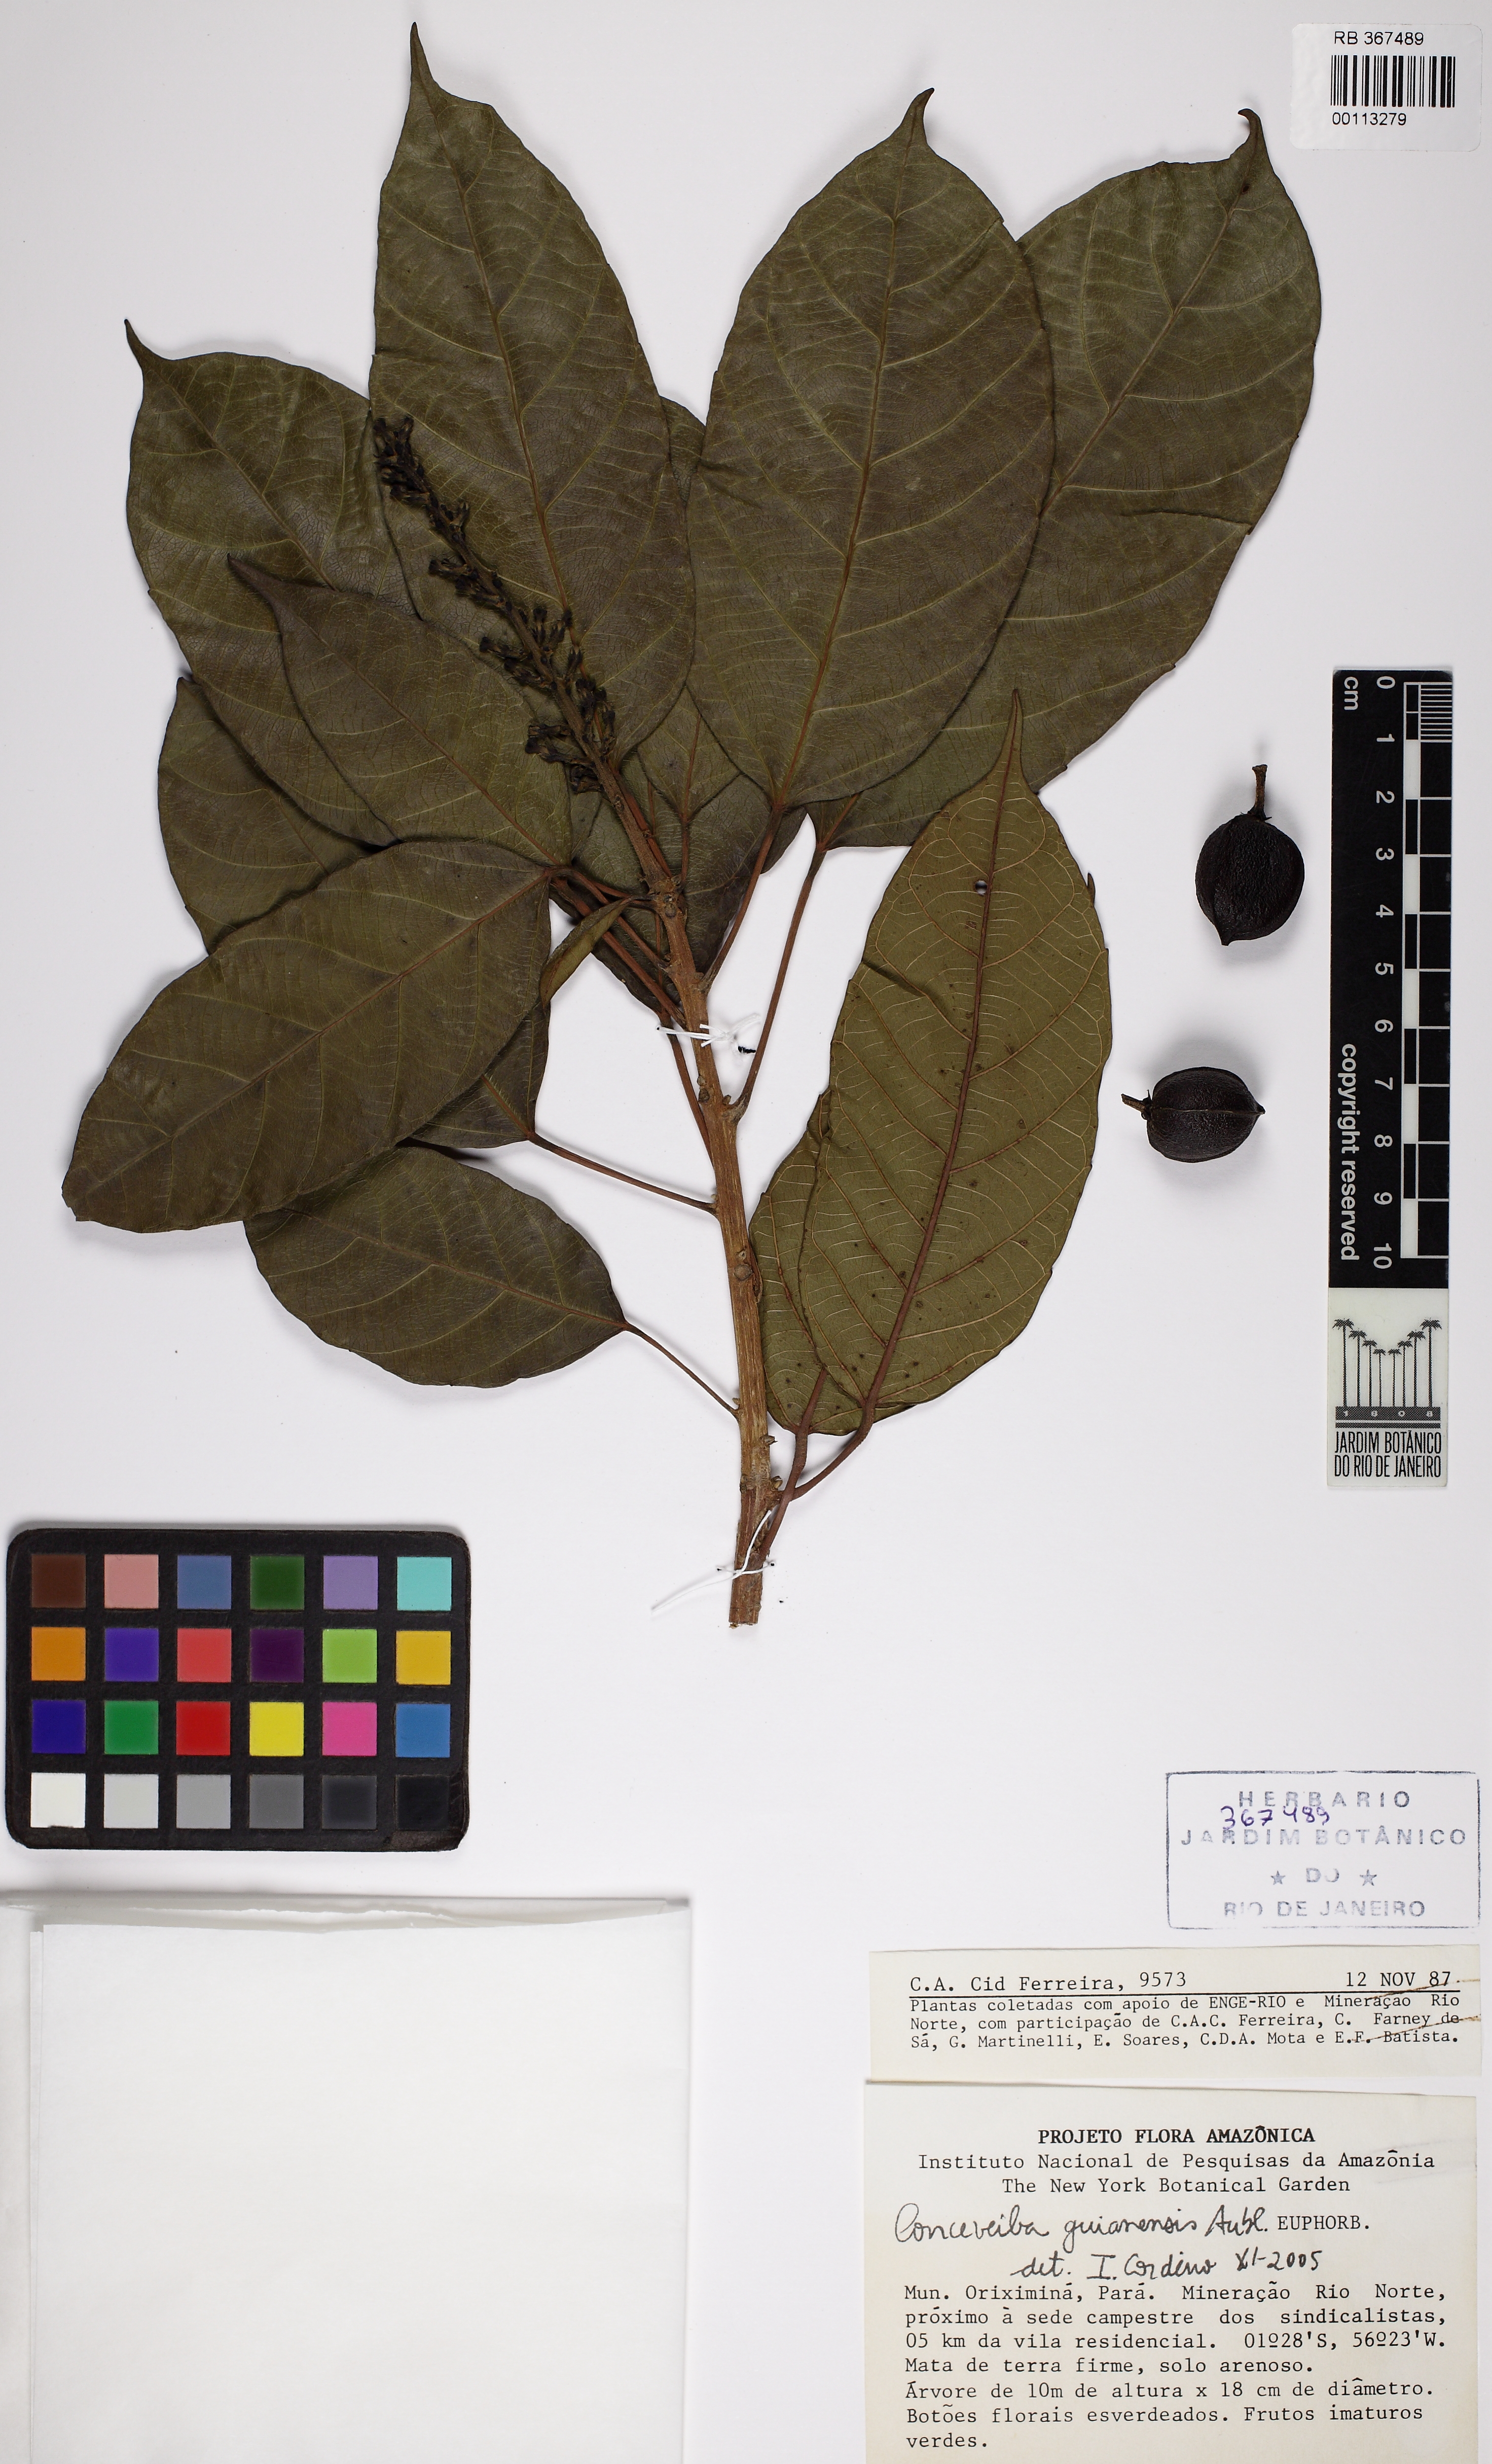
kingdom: Plantae
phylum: Tracheophyta
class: Magnoliopsida
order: Malpighiales
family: Euphorbiaceae
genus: Conceveiba
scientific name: Conceveiba guianensis
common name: Poatoru
